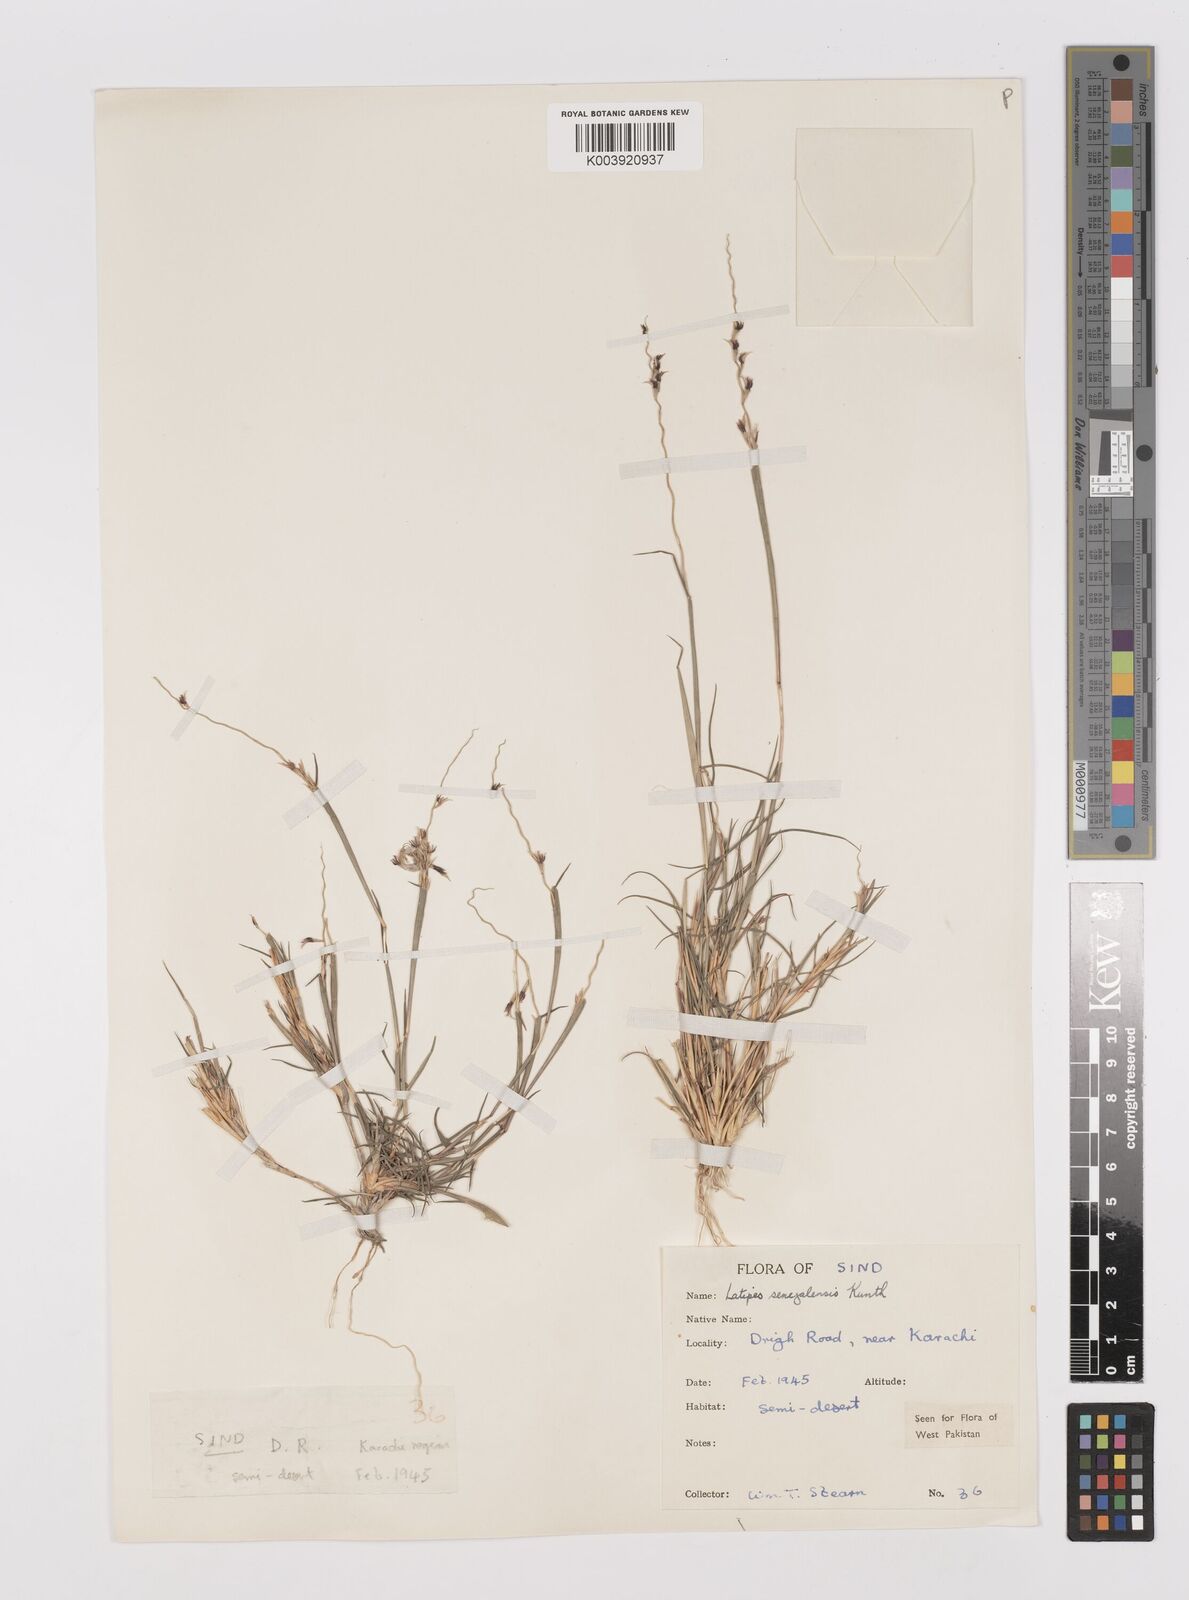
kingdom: Plantae
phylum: Tracheophyta
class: Liliopsida
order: Poales
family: Poaceae
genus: Leptothrium
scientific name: Leptothrium senegalense
